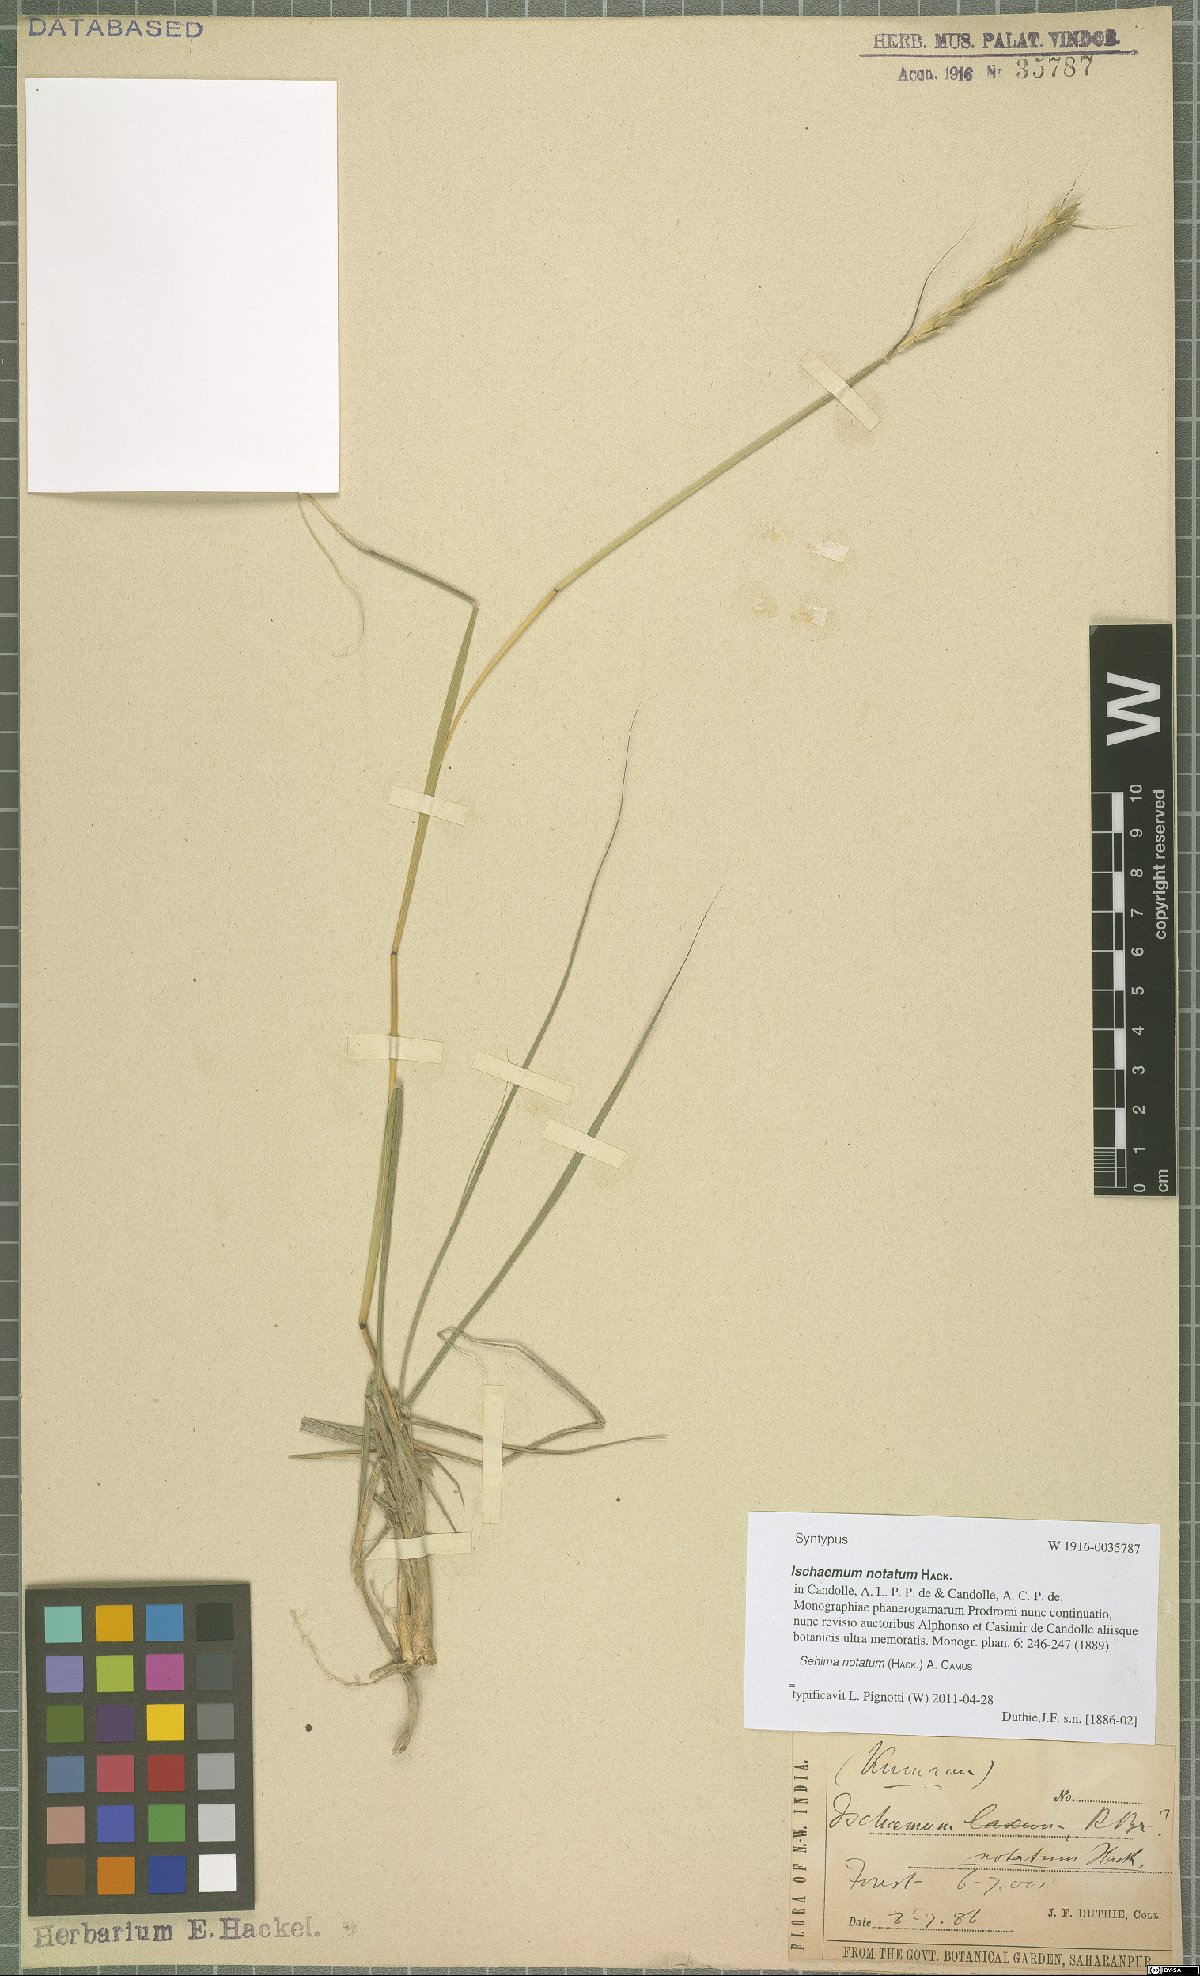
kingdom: Plantae
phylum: Tracheophyta
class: Liliopsida
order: Poales
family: Poaceae
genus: Sehima
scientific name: Sehima notata
